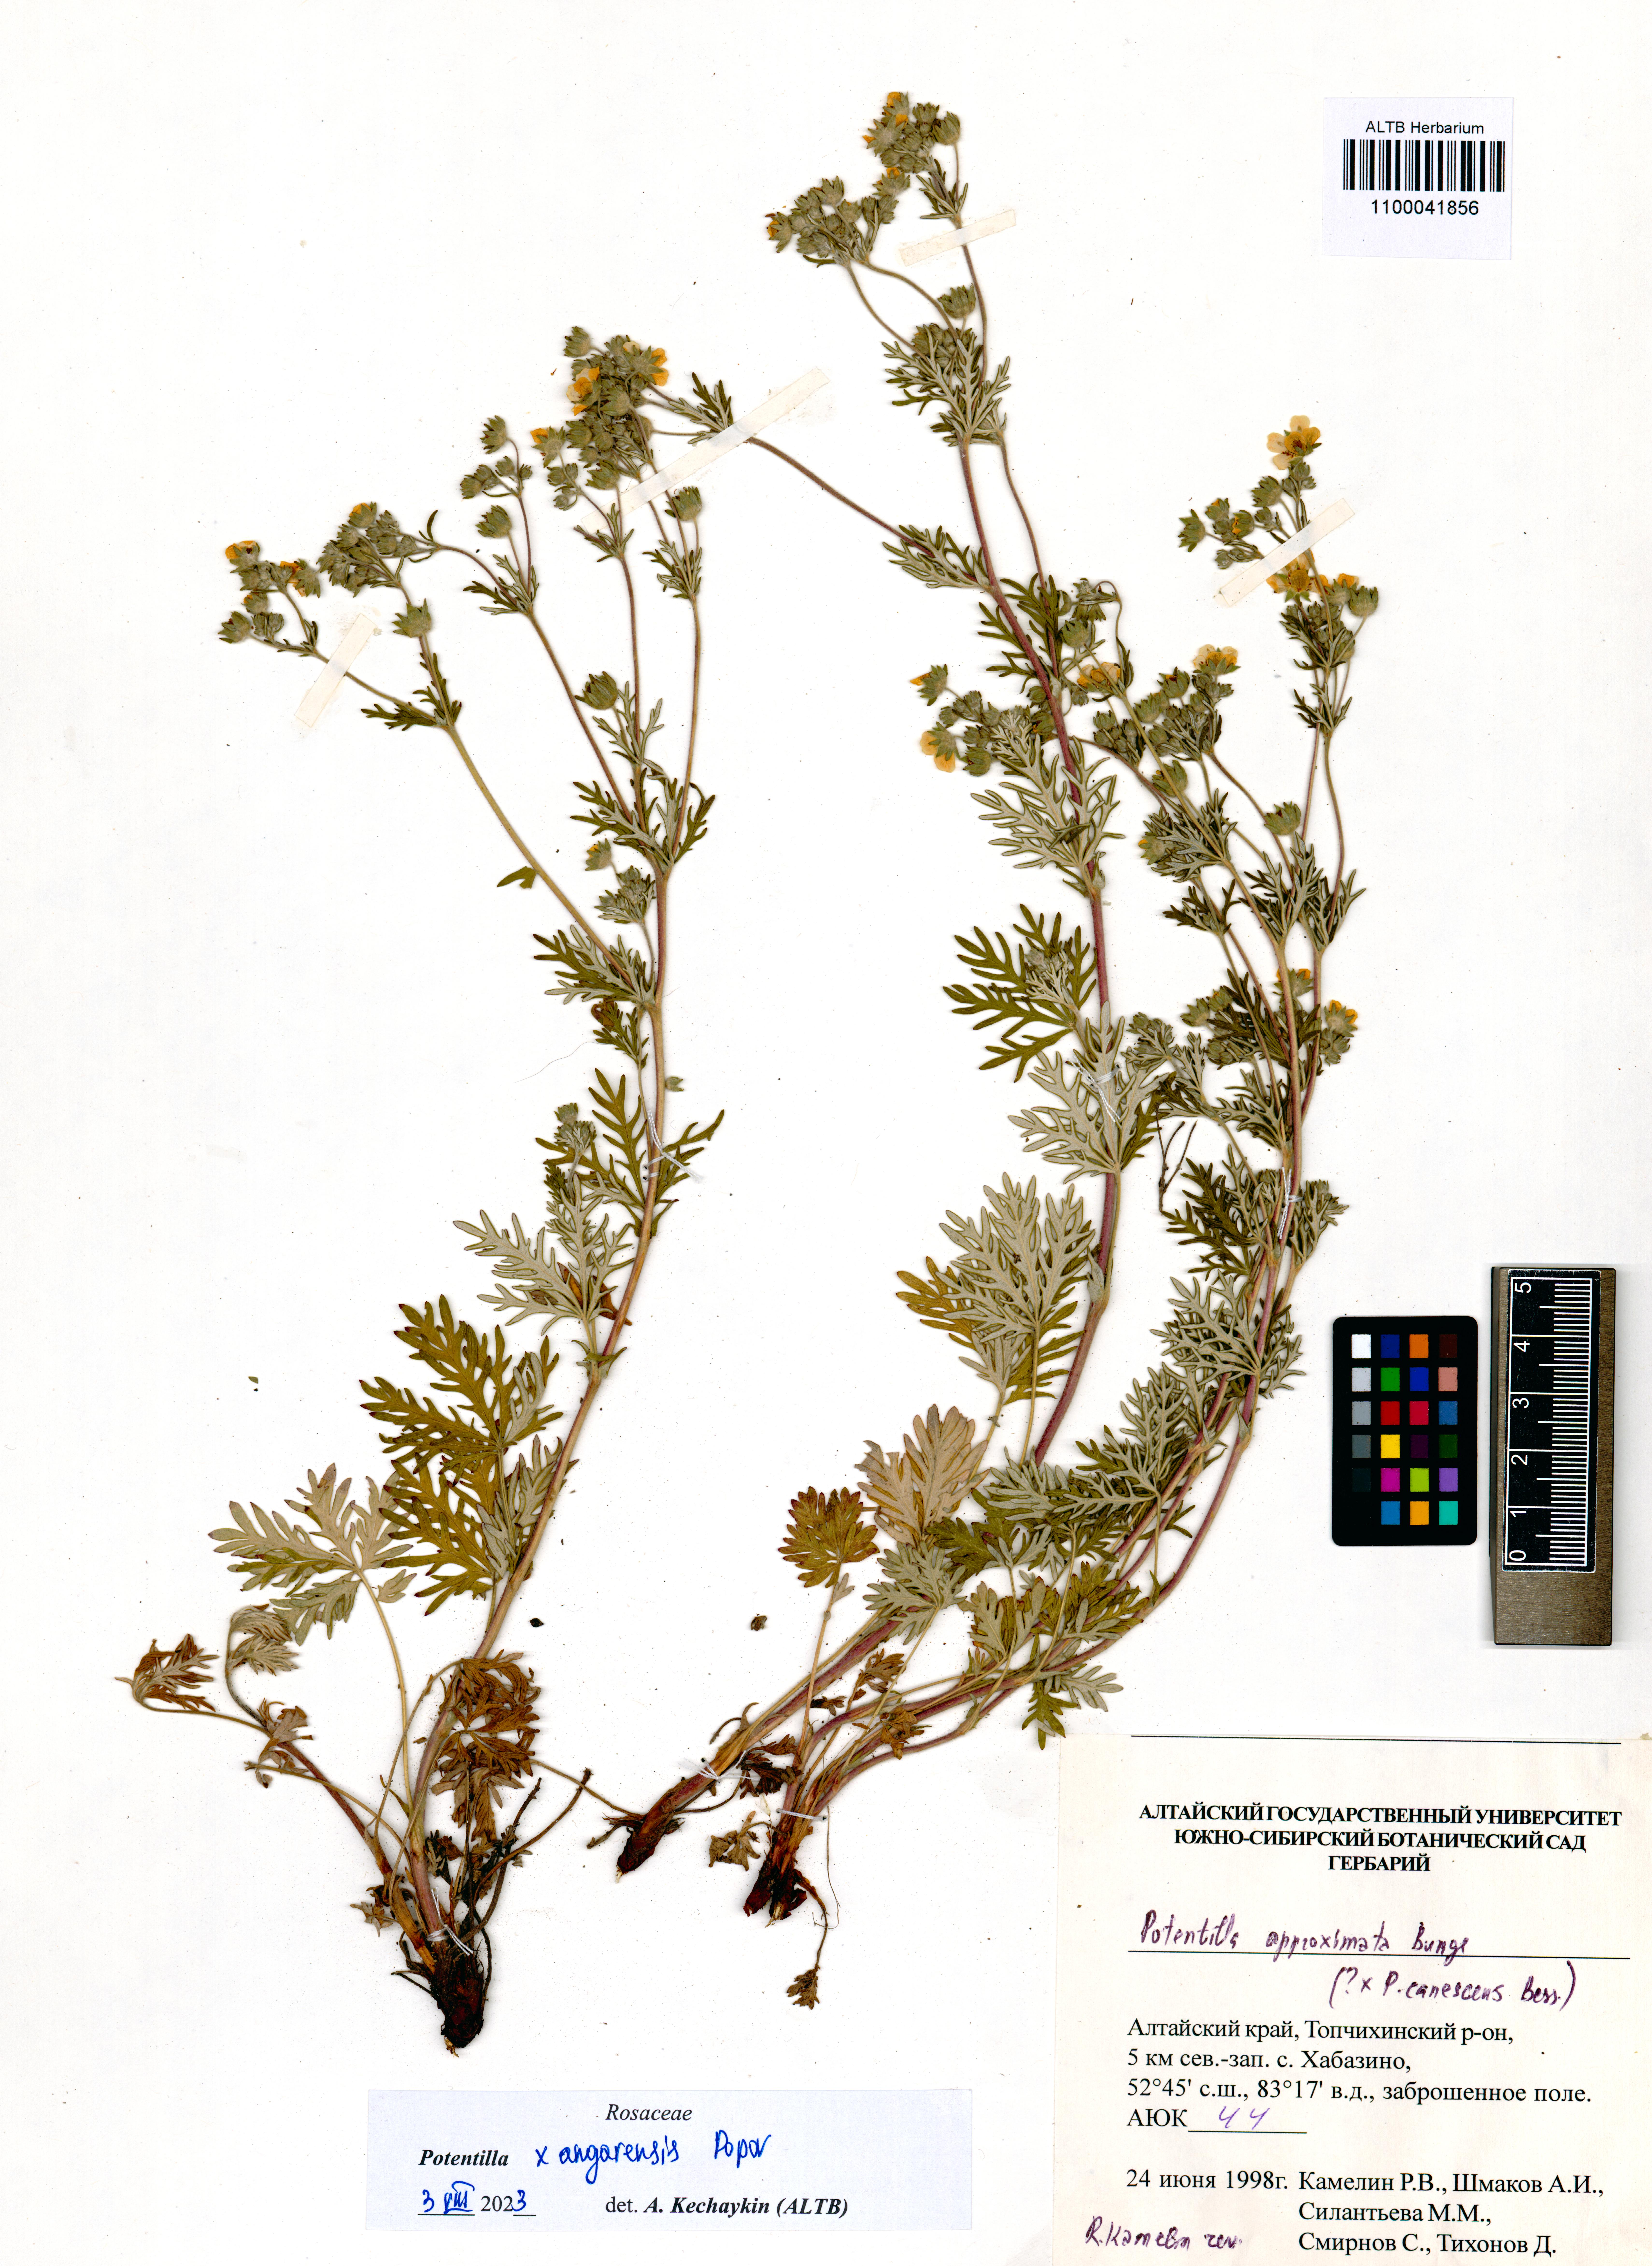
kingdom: Plantae
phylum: Tracheophyta
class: Magnoliopsida
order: Rosales
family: Rosaceae
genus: Potentilla
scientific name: Potentilla angarensis
